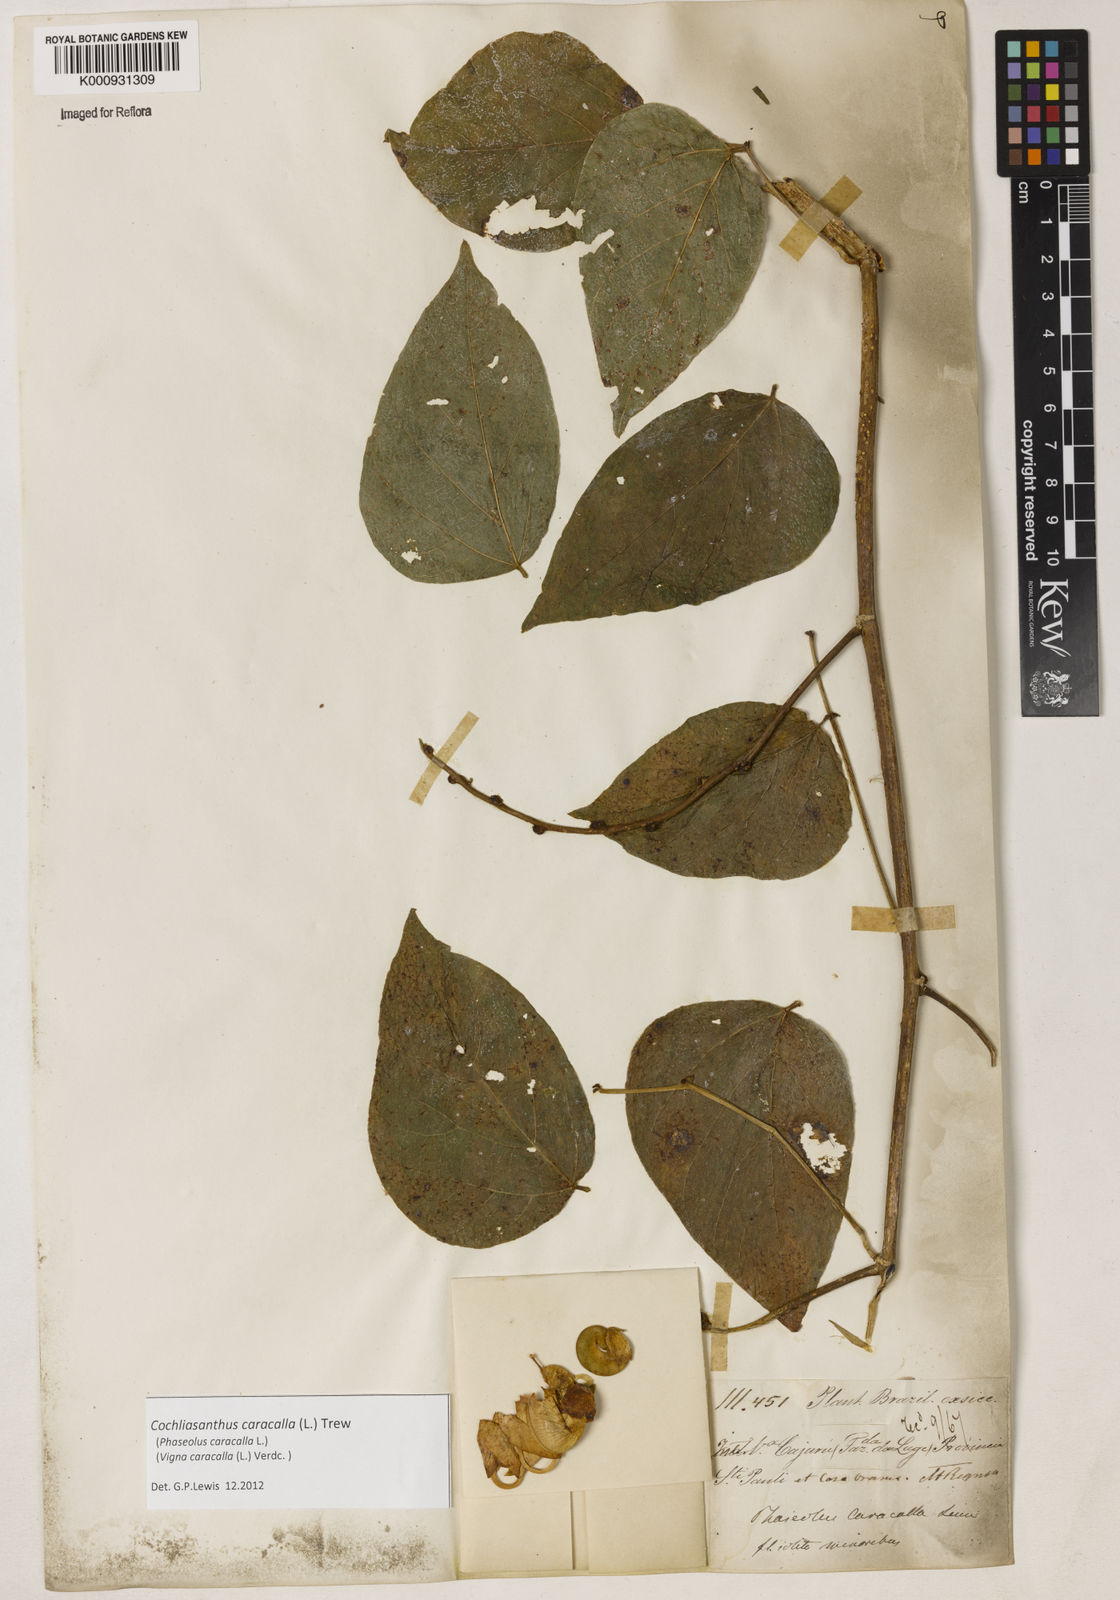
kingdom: Plantae
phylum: Tracheophyta
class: Magnoliopsida
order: Fabales
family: Fabaceae
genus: Cochliasanthus
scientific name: Cochliasanthus caracalla
